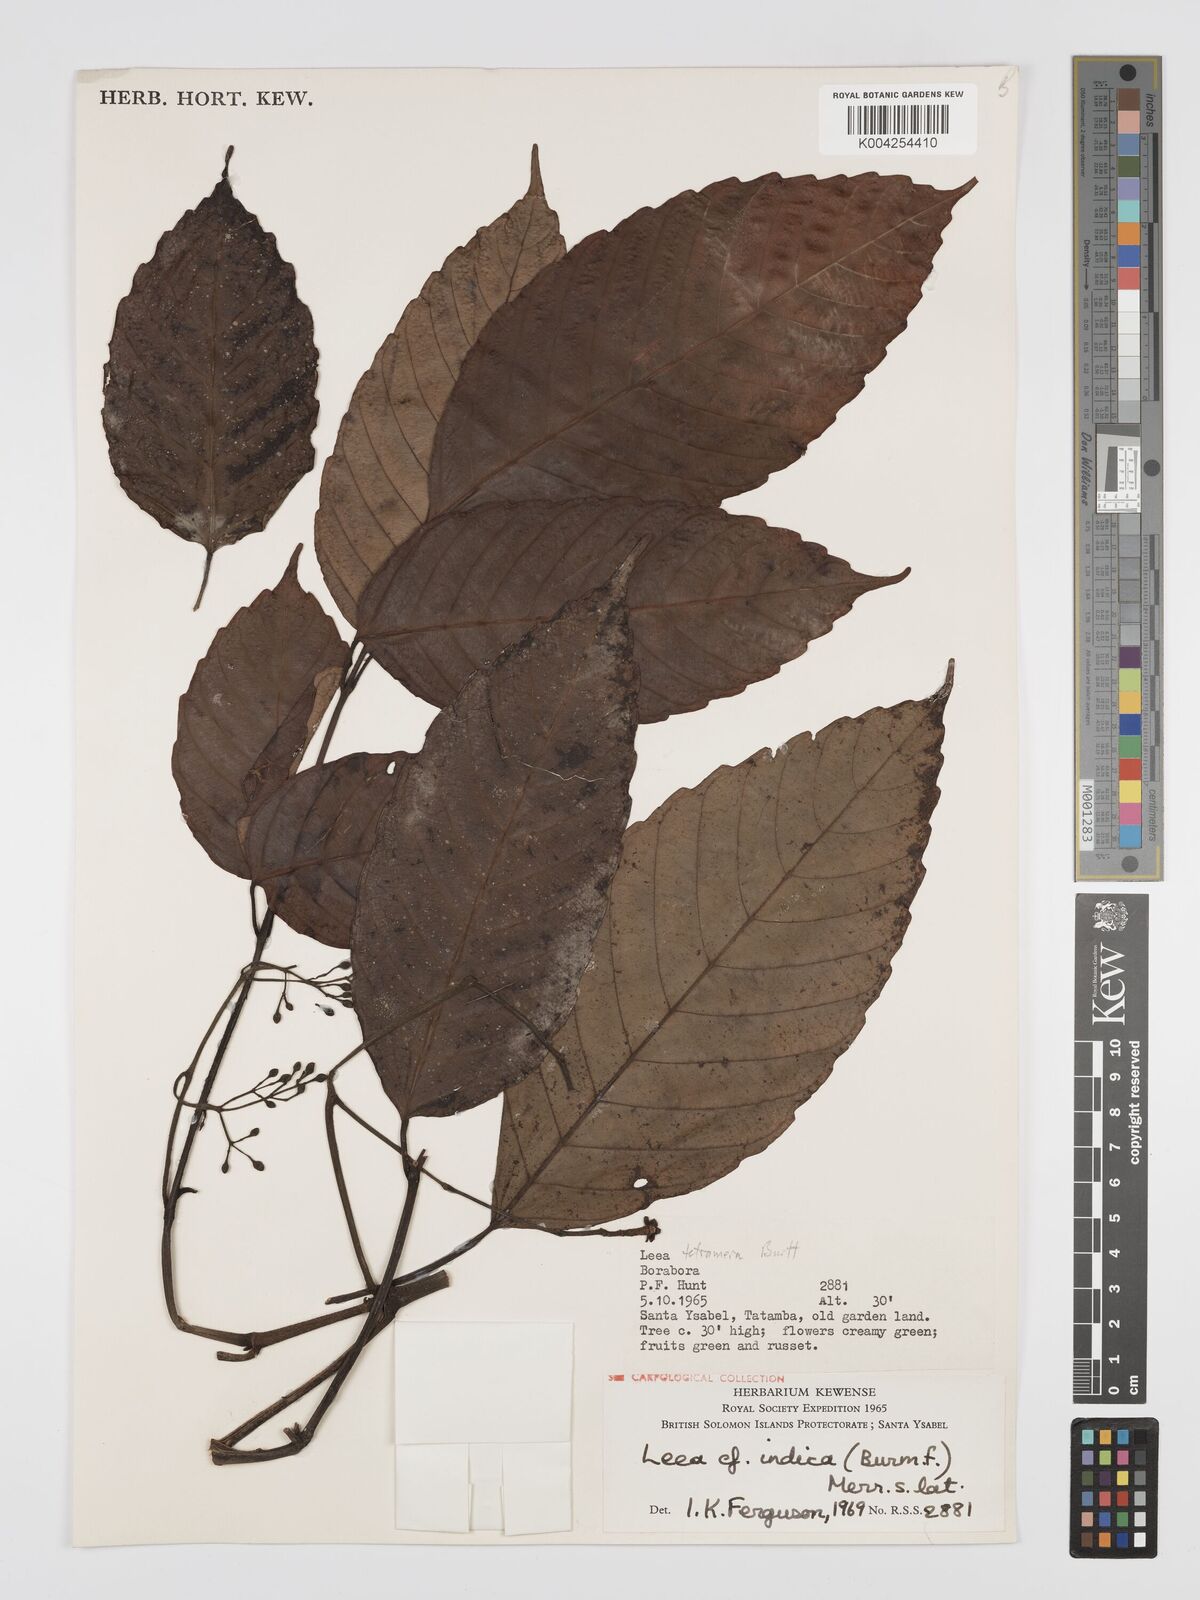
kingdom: Plantae
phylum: Tracheophyta
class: Magnoliopsida
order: Vitales
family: Vitaceae
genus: Leea
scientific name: Leea tetramera
